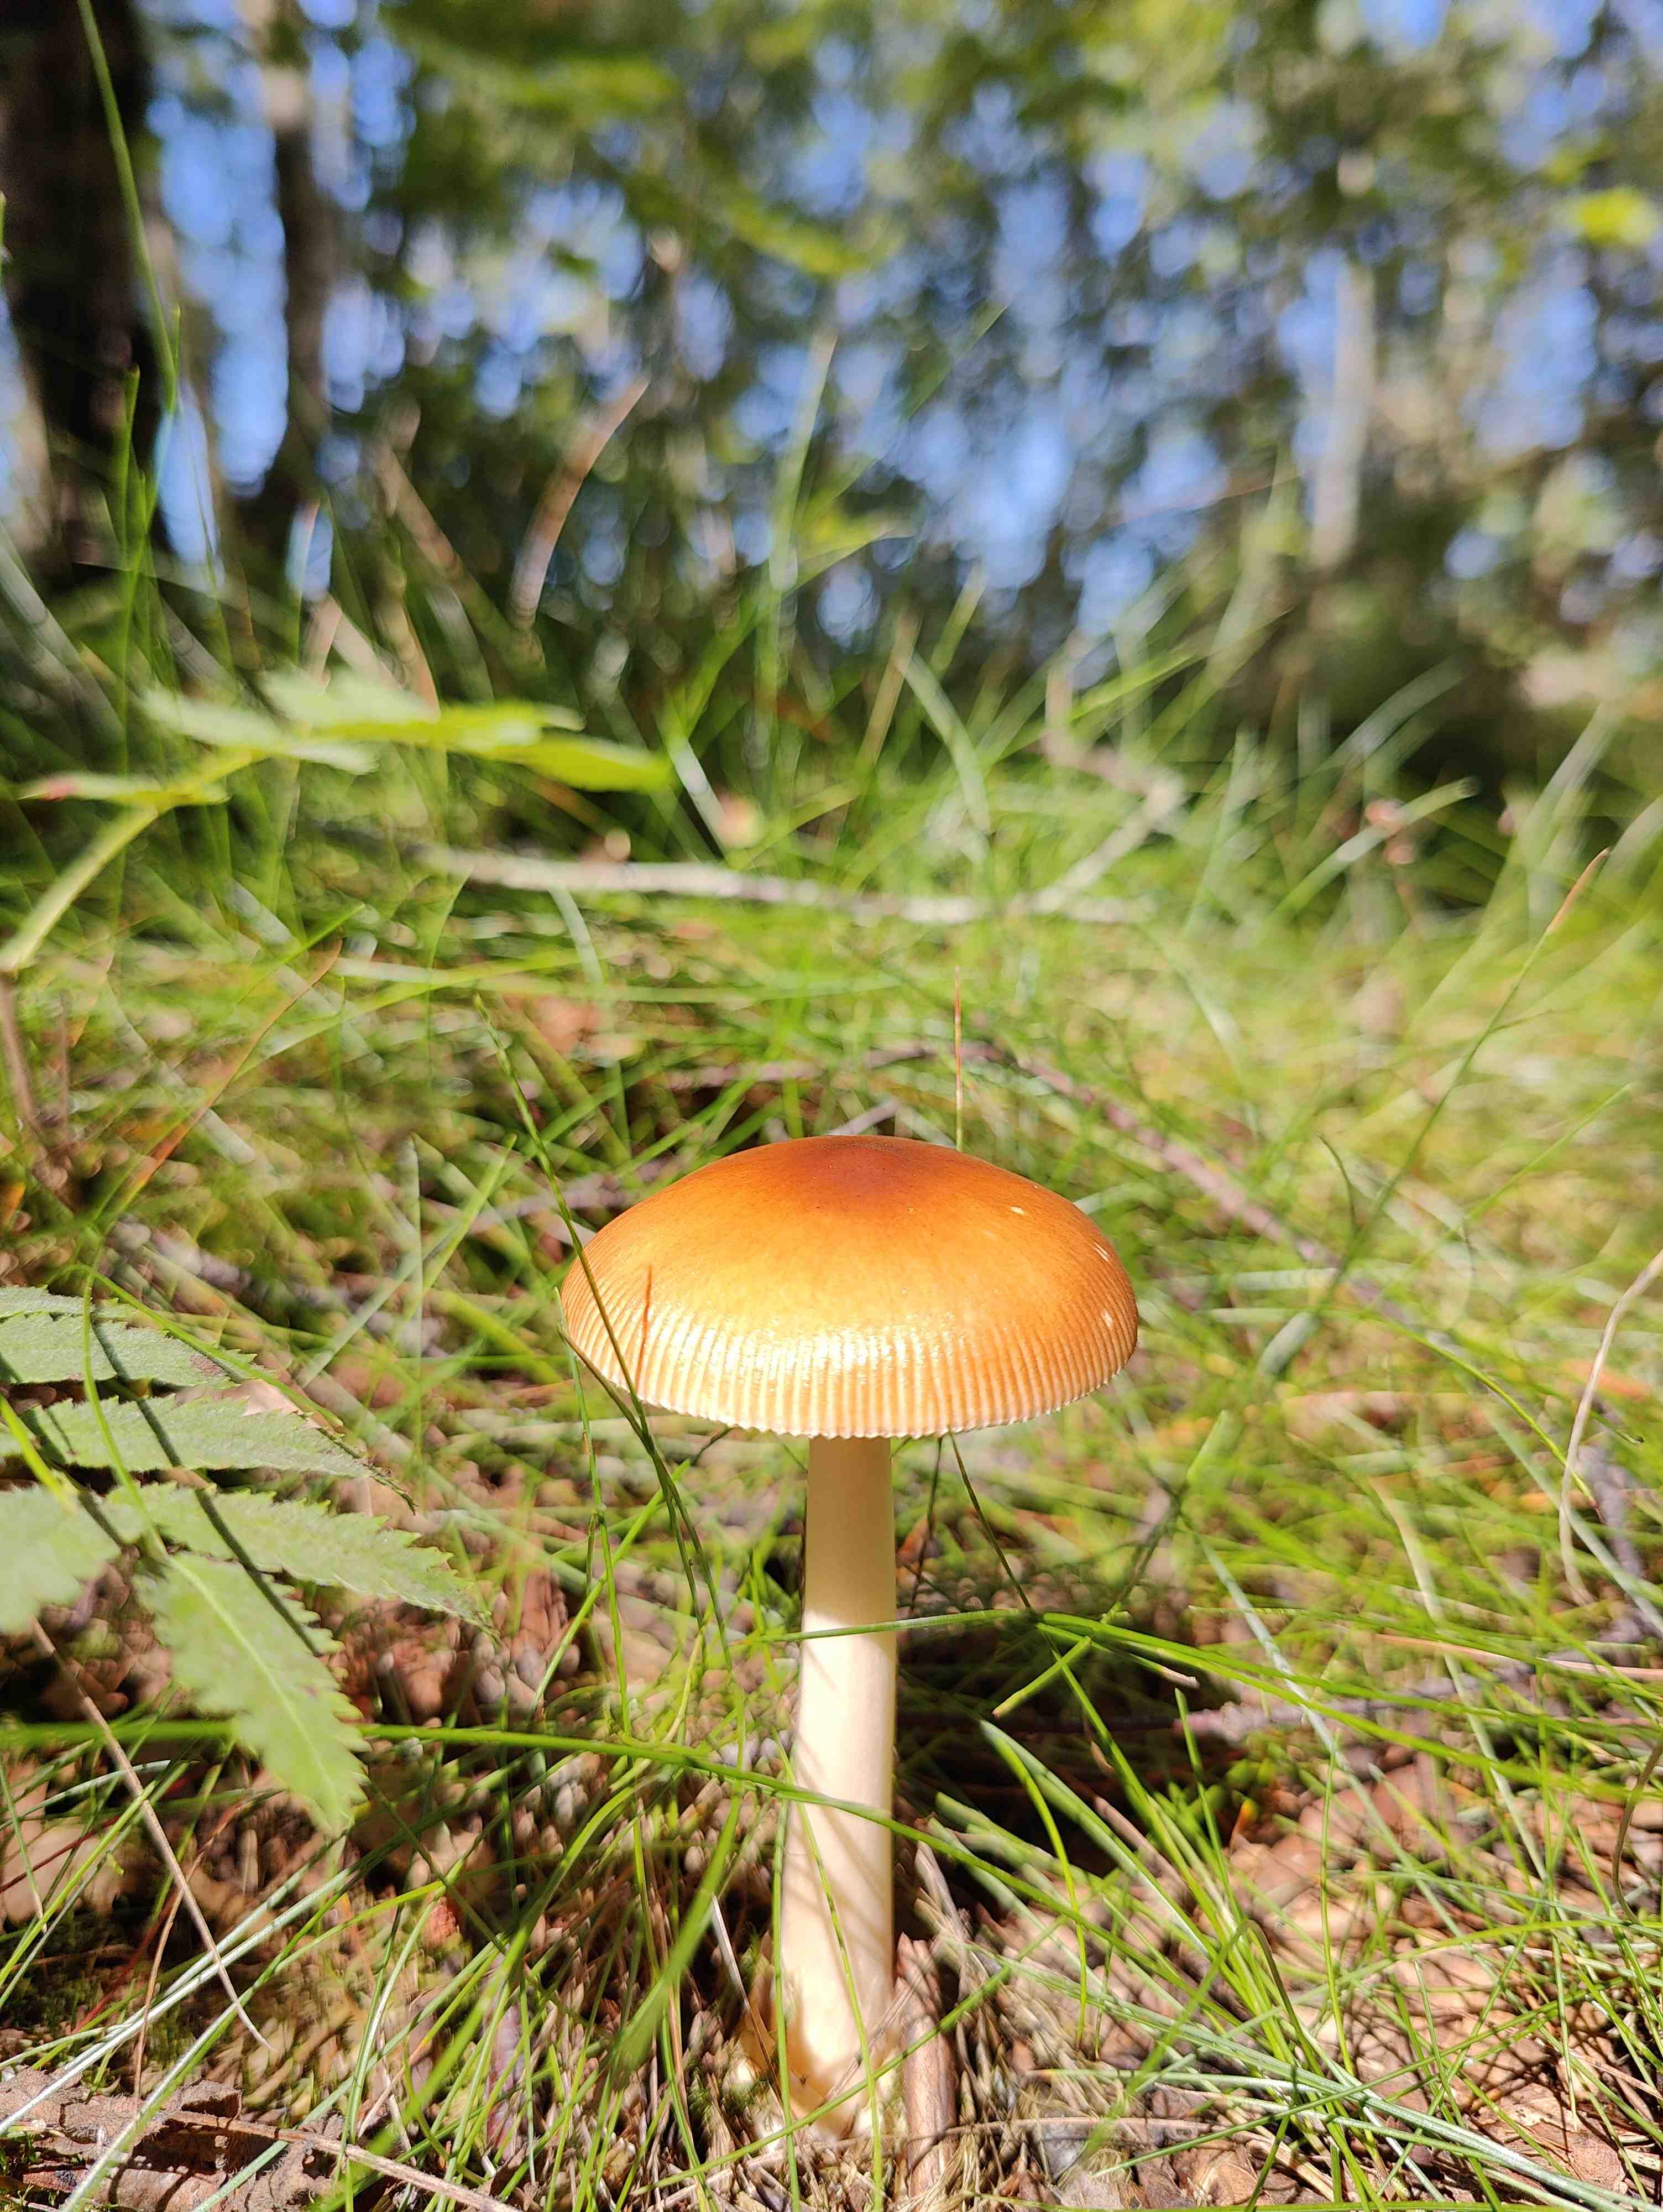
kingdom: Fungi
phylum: Basidiomycota
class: Agaricomycetes
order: Agaricales
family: Amanitaceae
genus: Amanita
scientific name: Amanita fulva
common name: brun kam-fluesvamp
